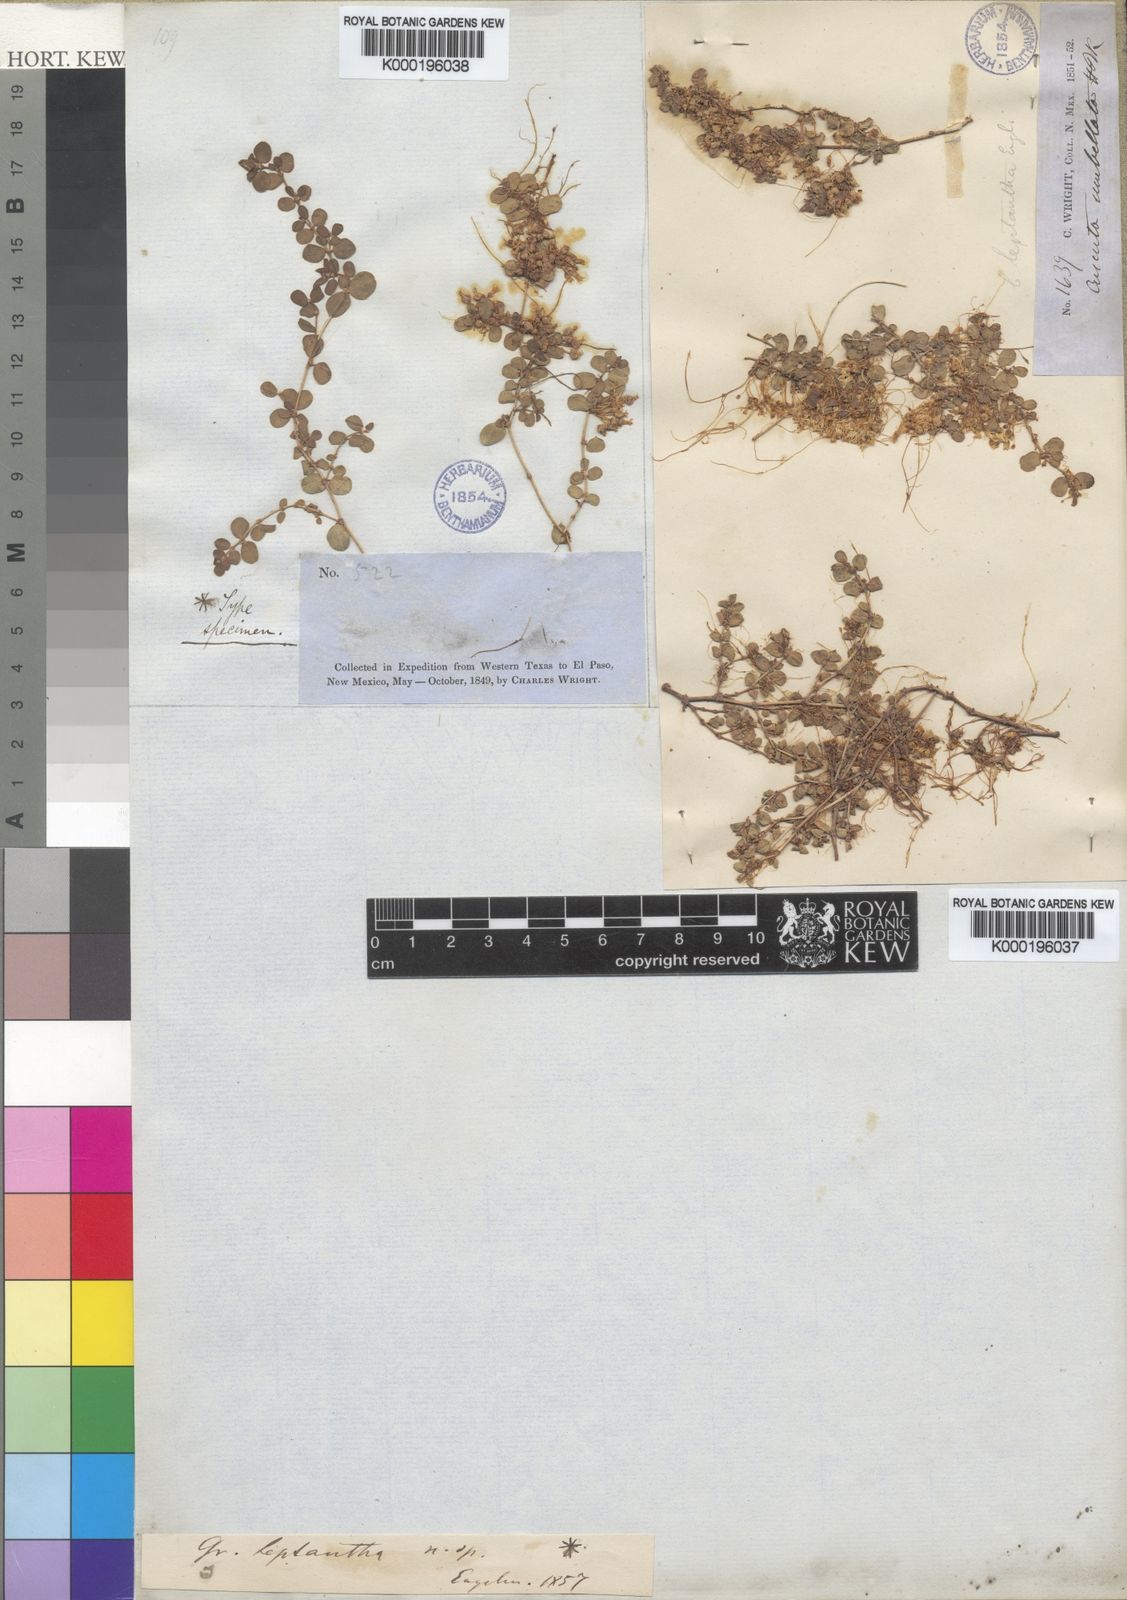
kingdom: Plantae
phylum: Tracheophyta
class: Magnoliopsida
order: Solanales
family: Convolvulaceae
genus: Cuscuta
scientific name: Cuscuta leptantha
